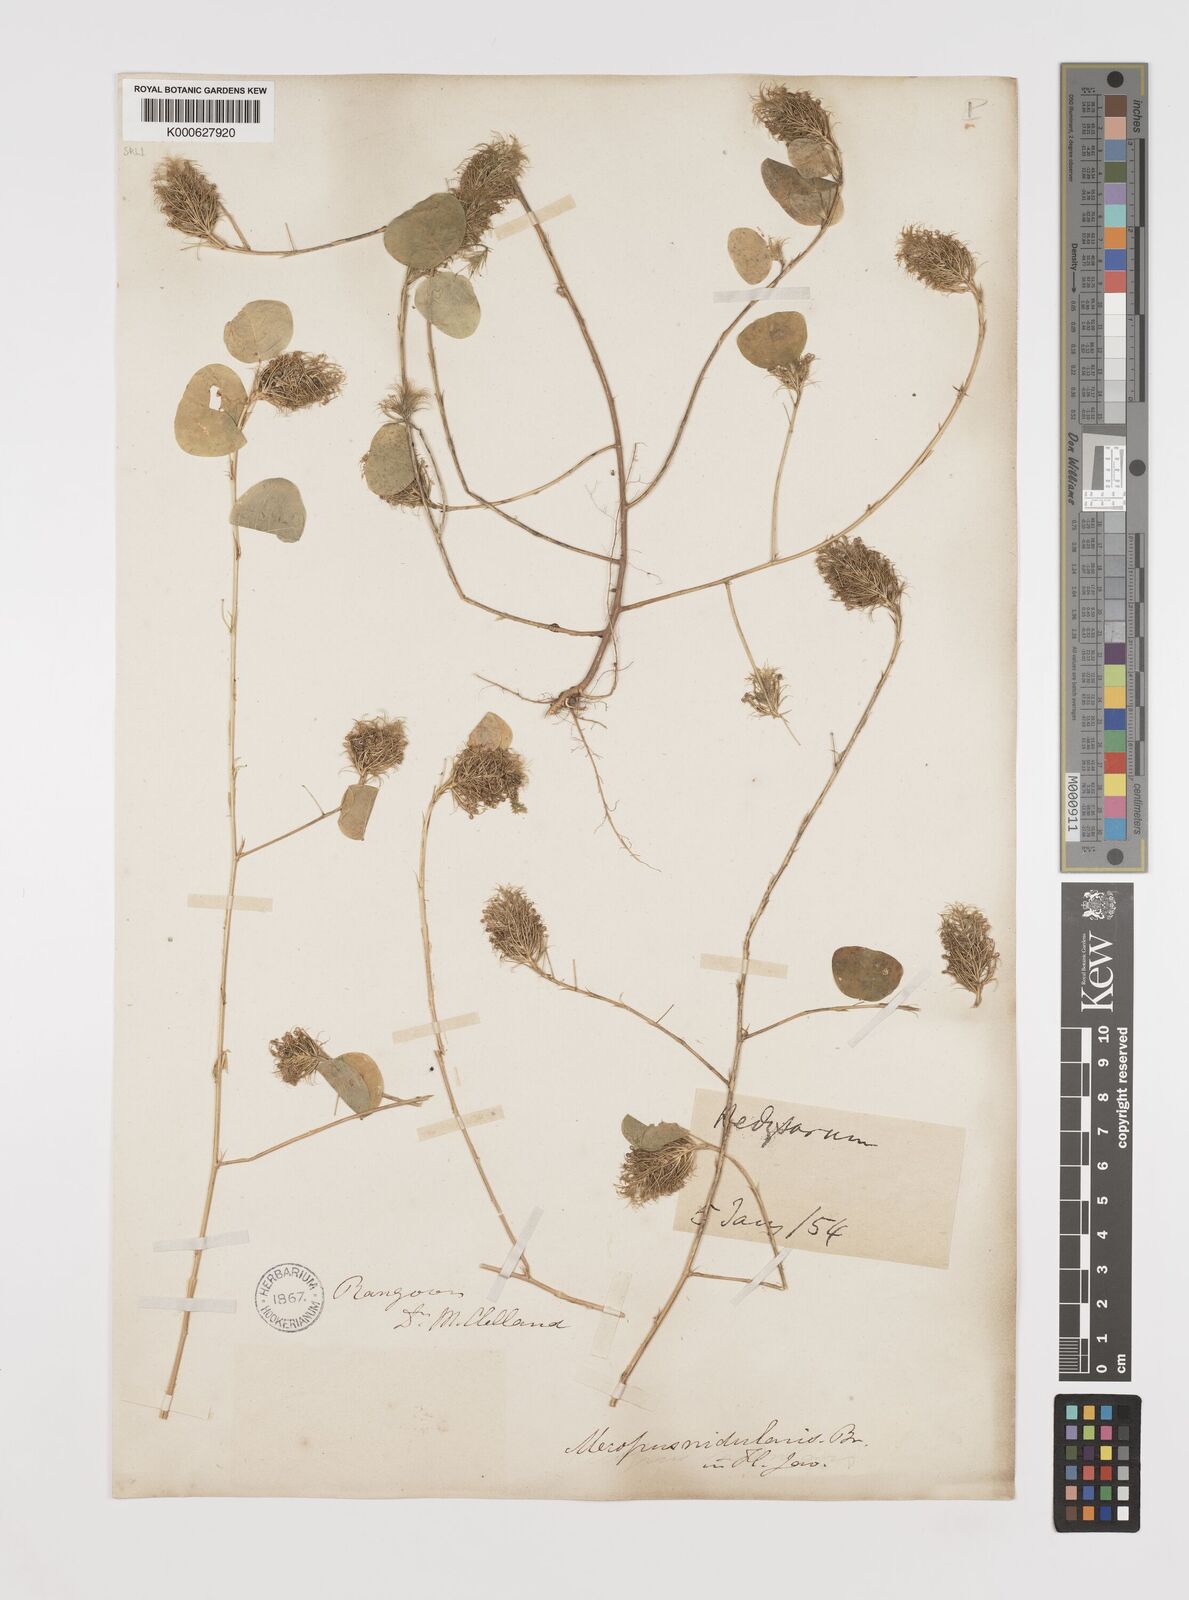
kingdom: Plantae
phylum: Tracheophyta
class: Magnoliopsida
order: Fabales
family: Fabaceae
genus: Mecopus
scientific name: Mecopus nidulans
